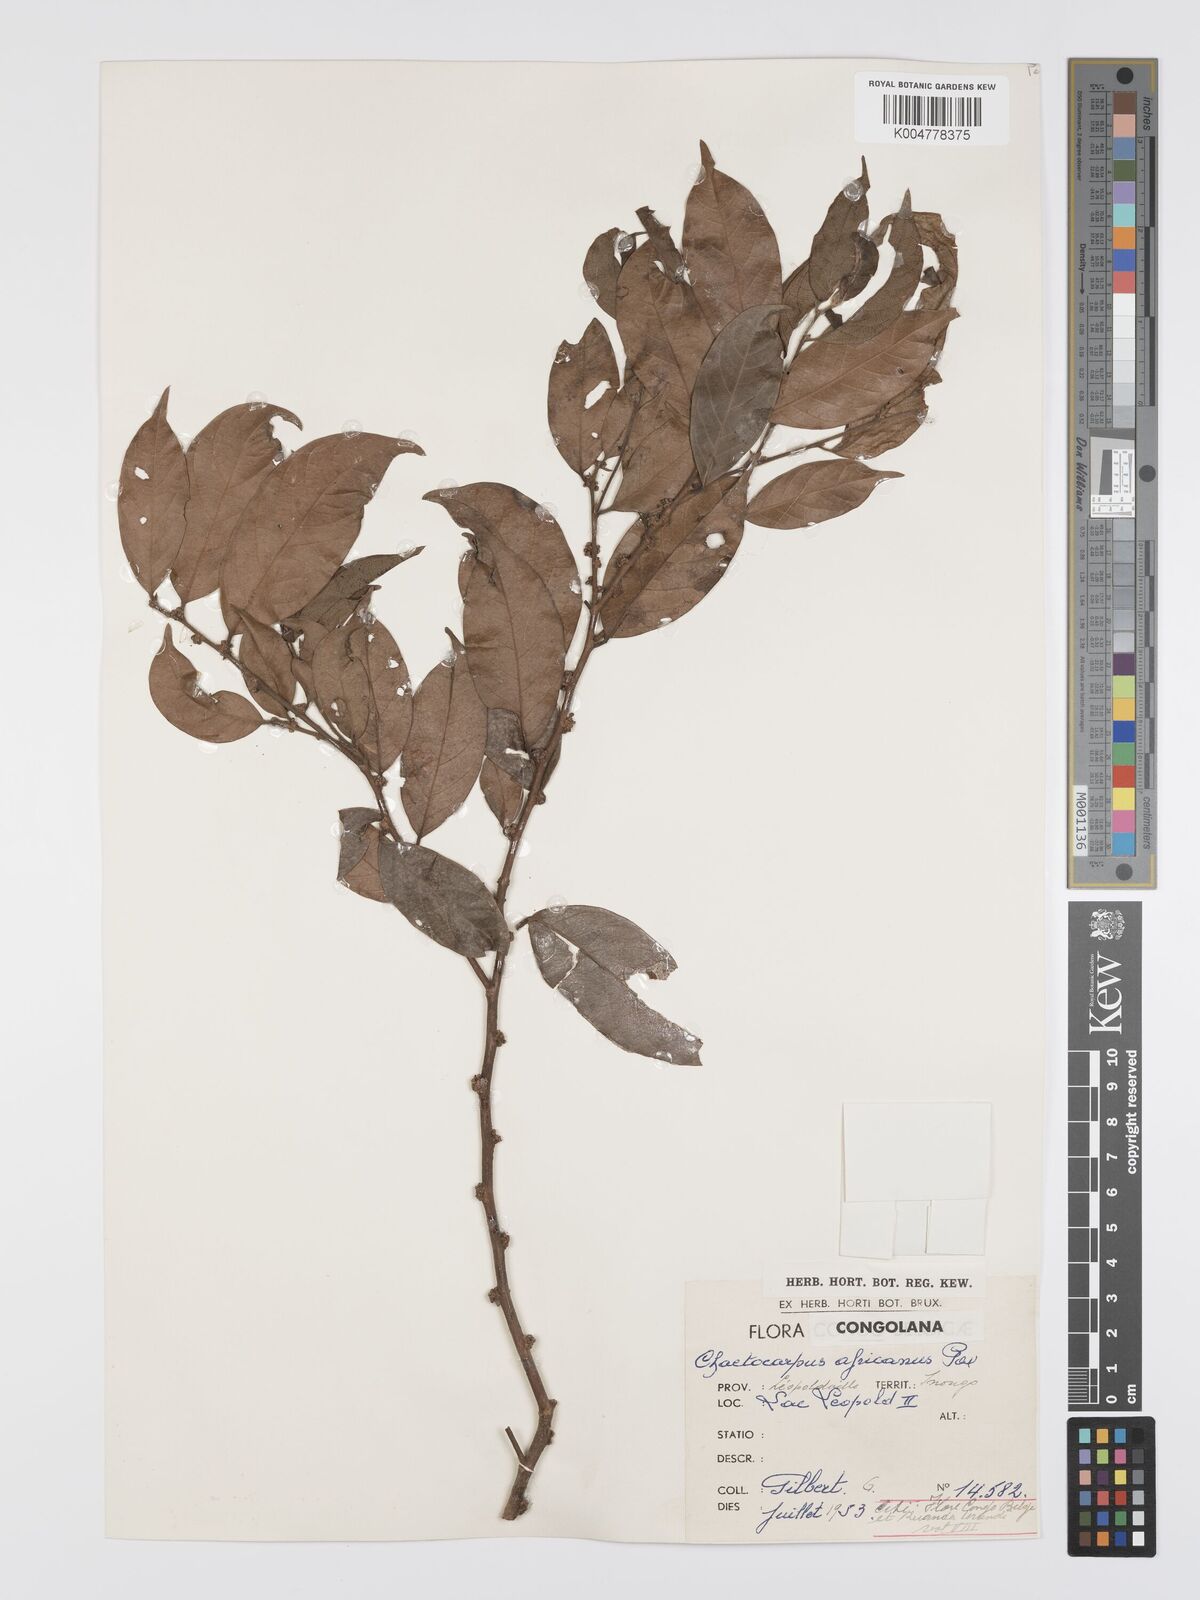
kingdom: Plantae
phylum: Tracheophyta
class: Magnoliopsida
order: Malpighiales
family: Peraceae
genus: Chaetocarpus
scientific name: Chaetocarpus africanus
